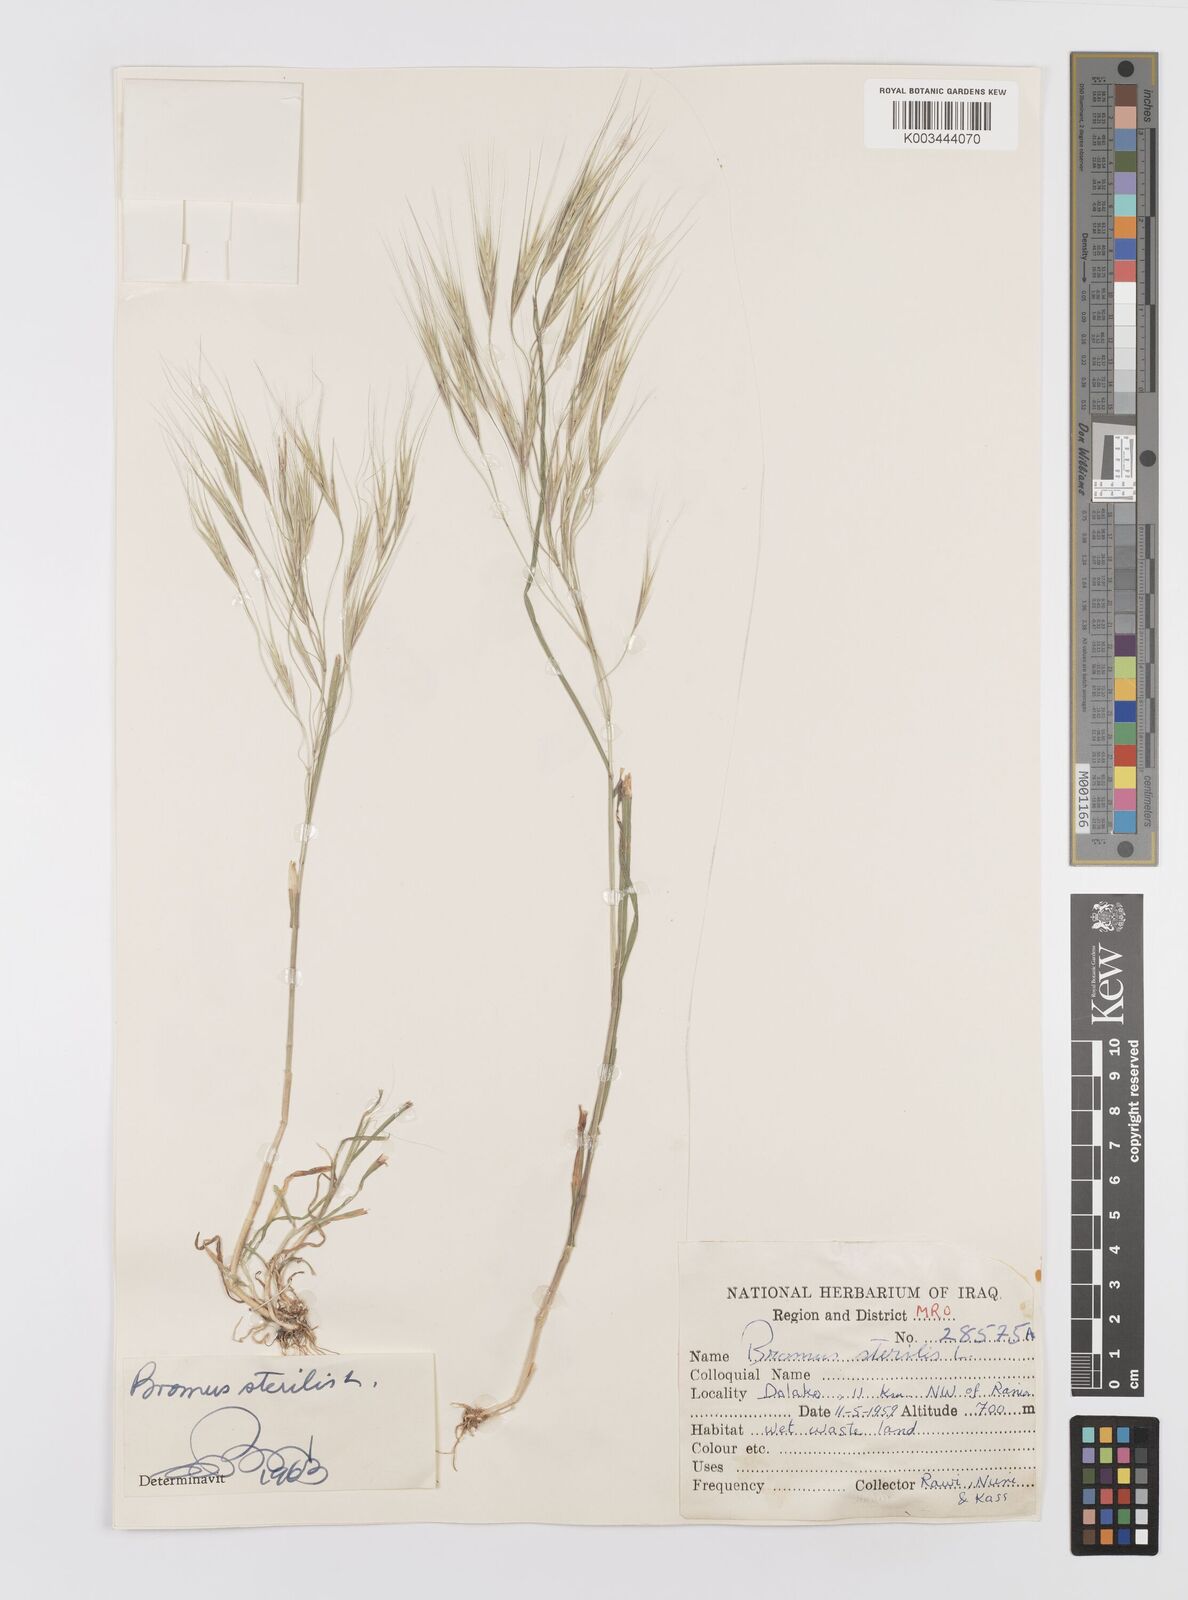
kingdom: Plantae
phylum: Tracheophyta
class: Liliopsida
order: Poales
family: Poaceae
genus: Bromus
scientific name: Bromus sterilis
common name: Poverty brome
